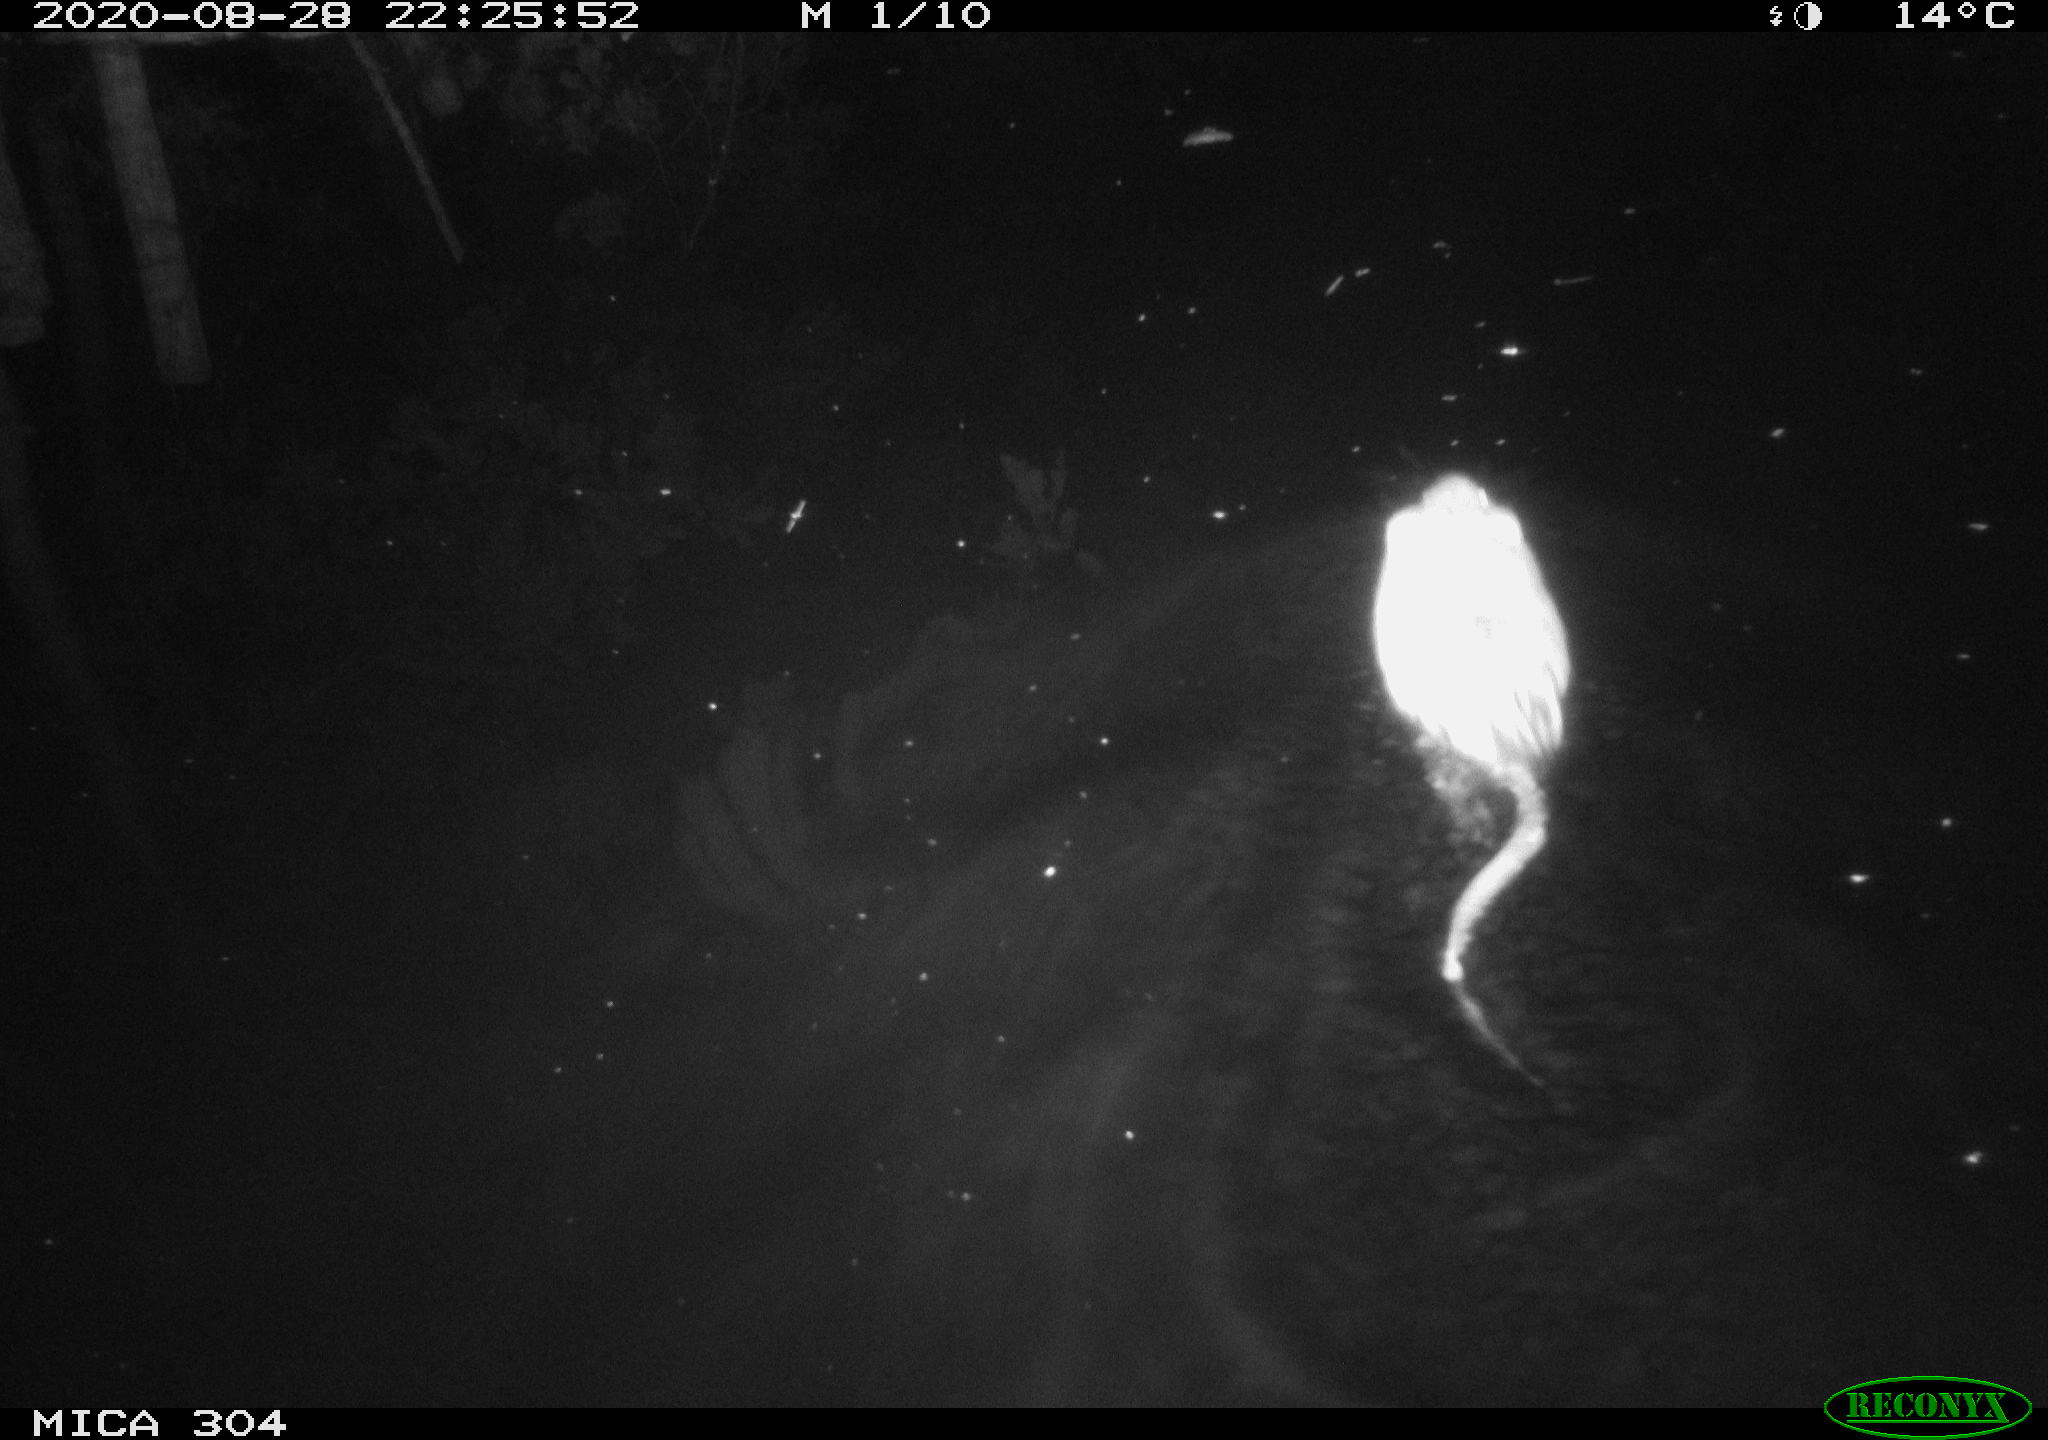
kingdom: Animalia
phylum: Chordata
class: Mammalia
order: Rodentia
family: Cricetidae
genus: Ondatra
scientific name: Ondatra zibethicus
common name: Muskrat
